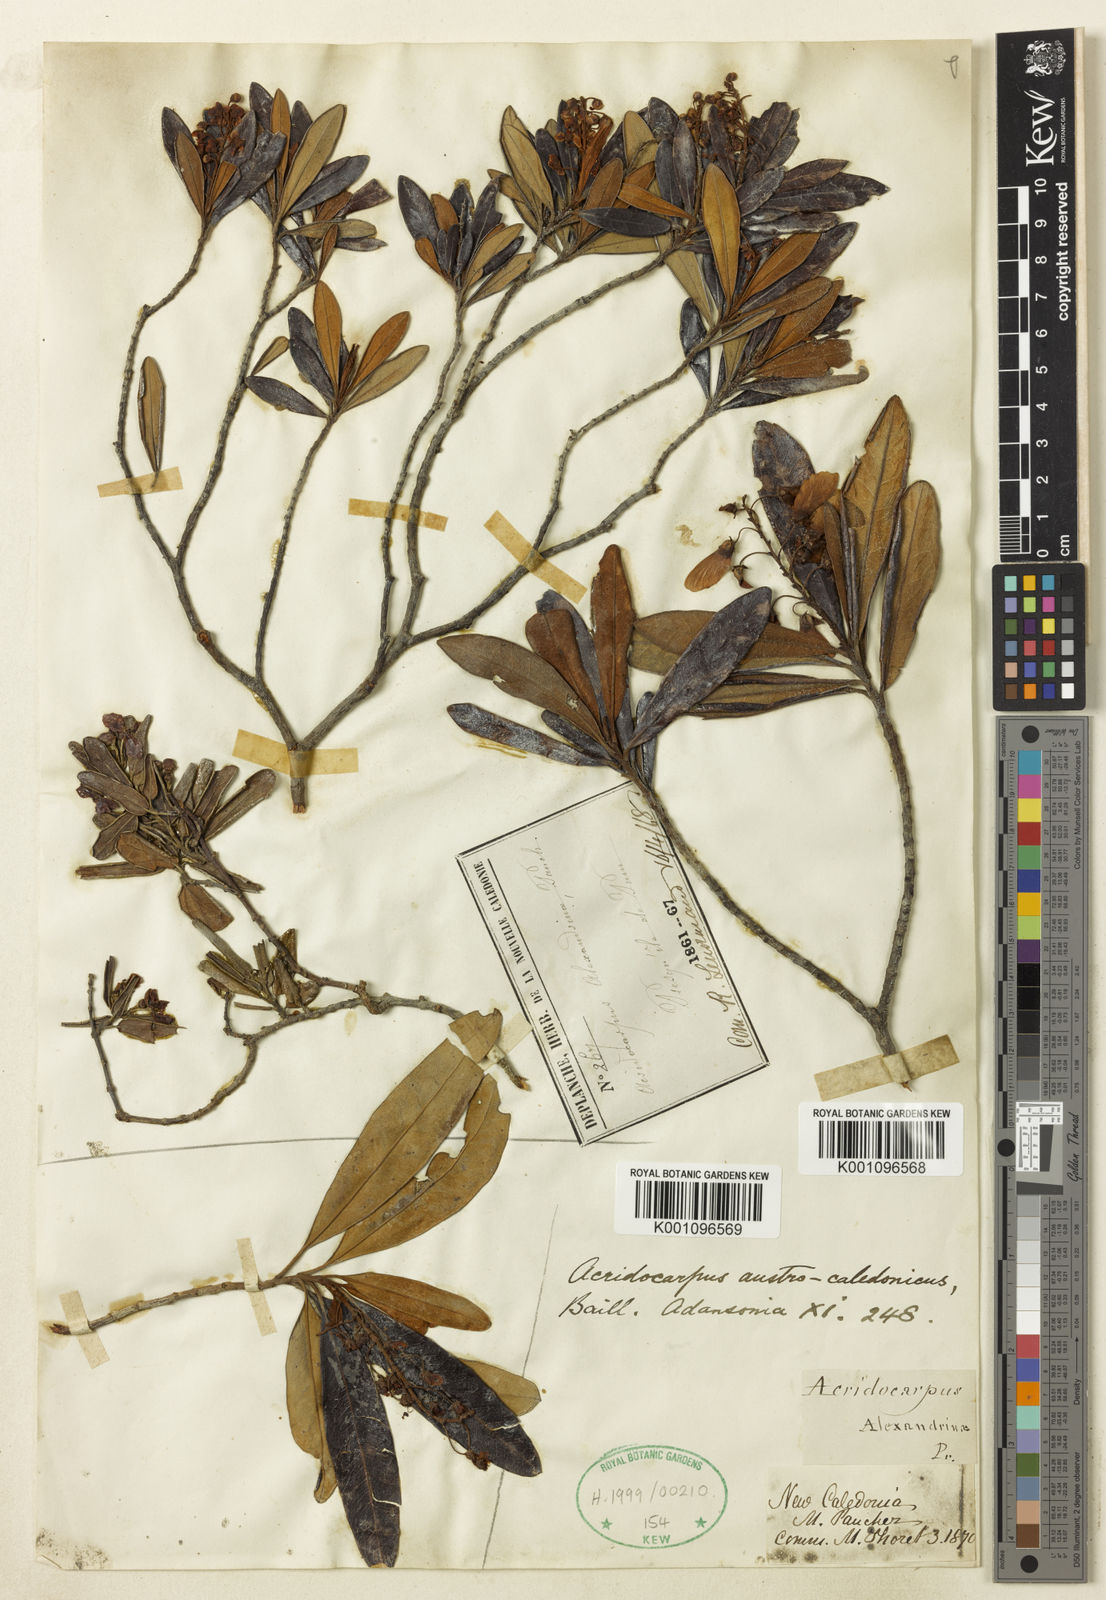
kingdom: Plantae
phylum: Tracheophyta
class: Magnoliopsida
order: Malpighiales
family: Malpighiaceae
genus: Acridocarpus
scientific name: Acridocarpus austrocaledonicus
